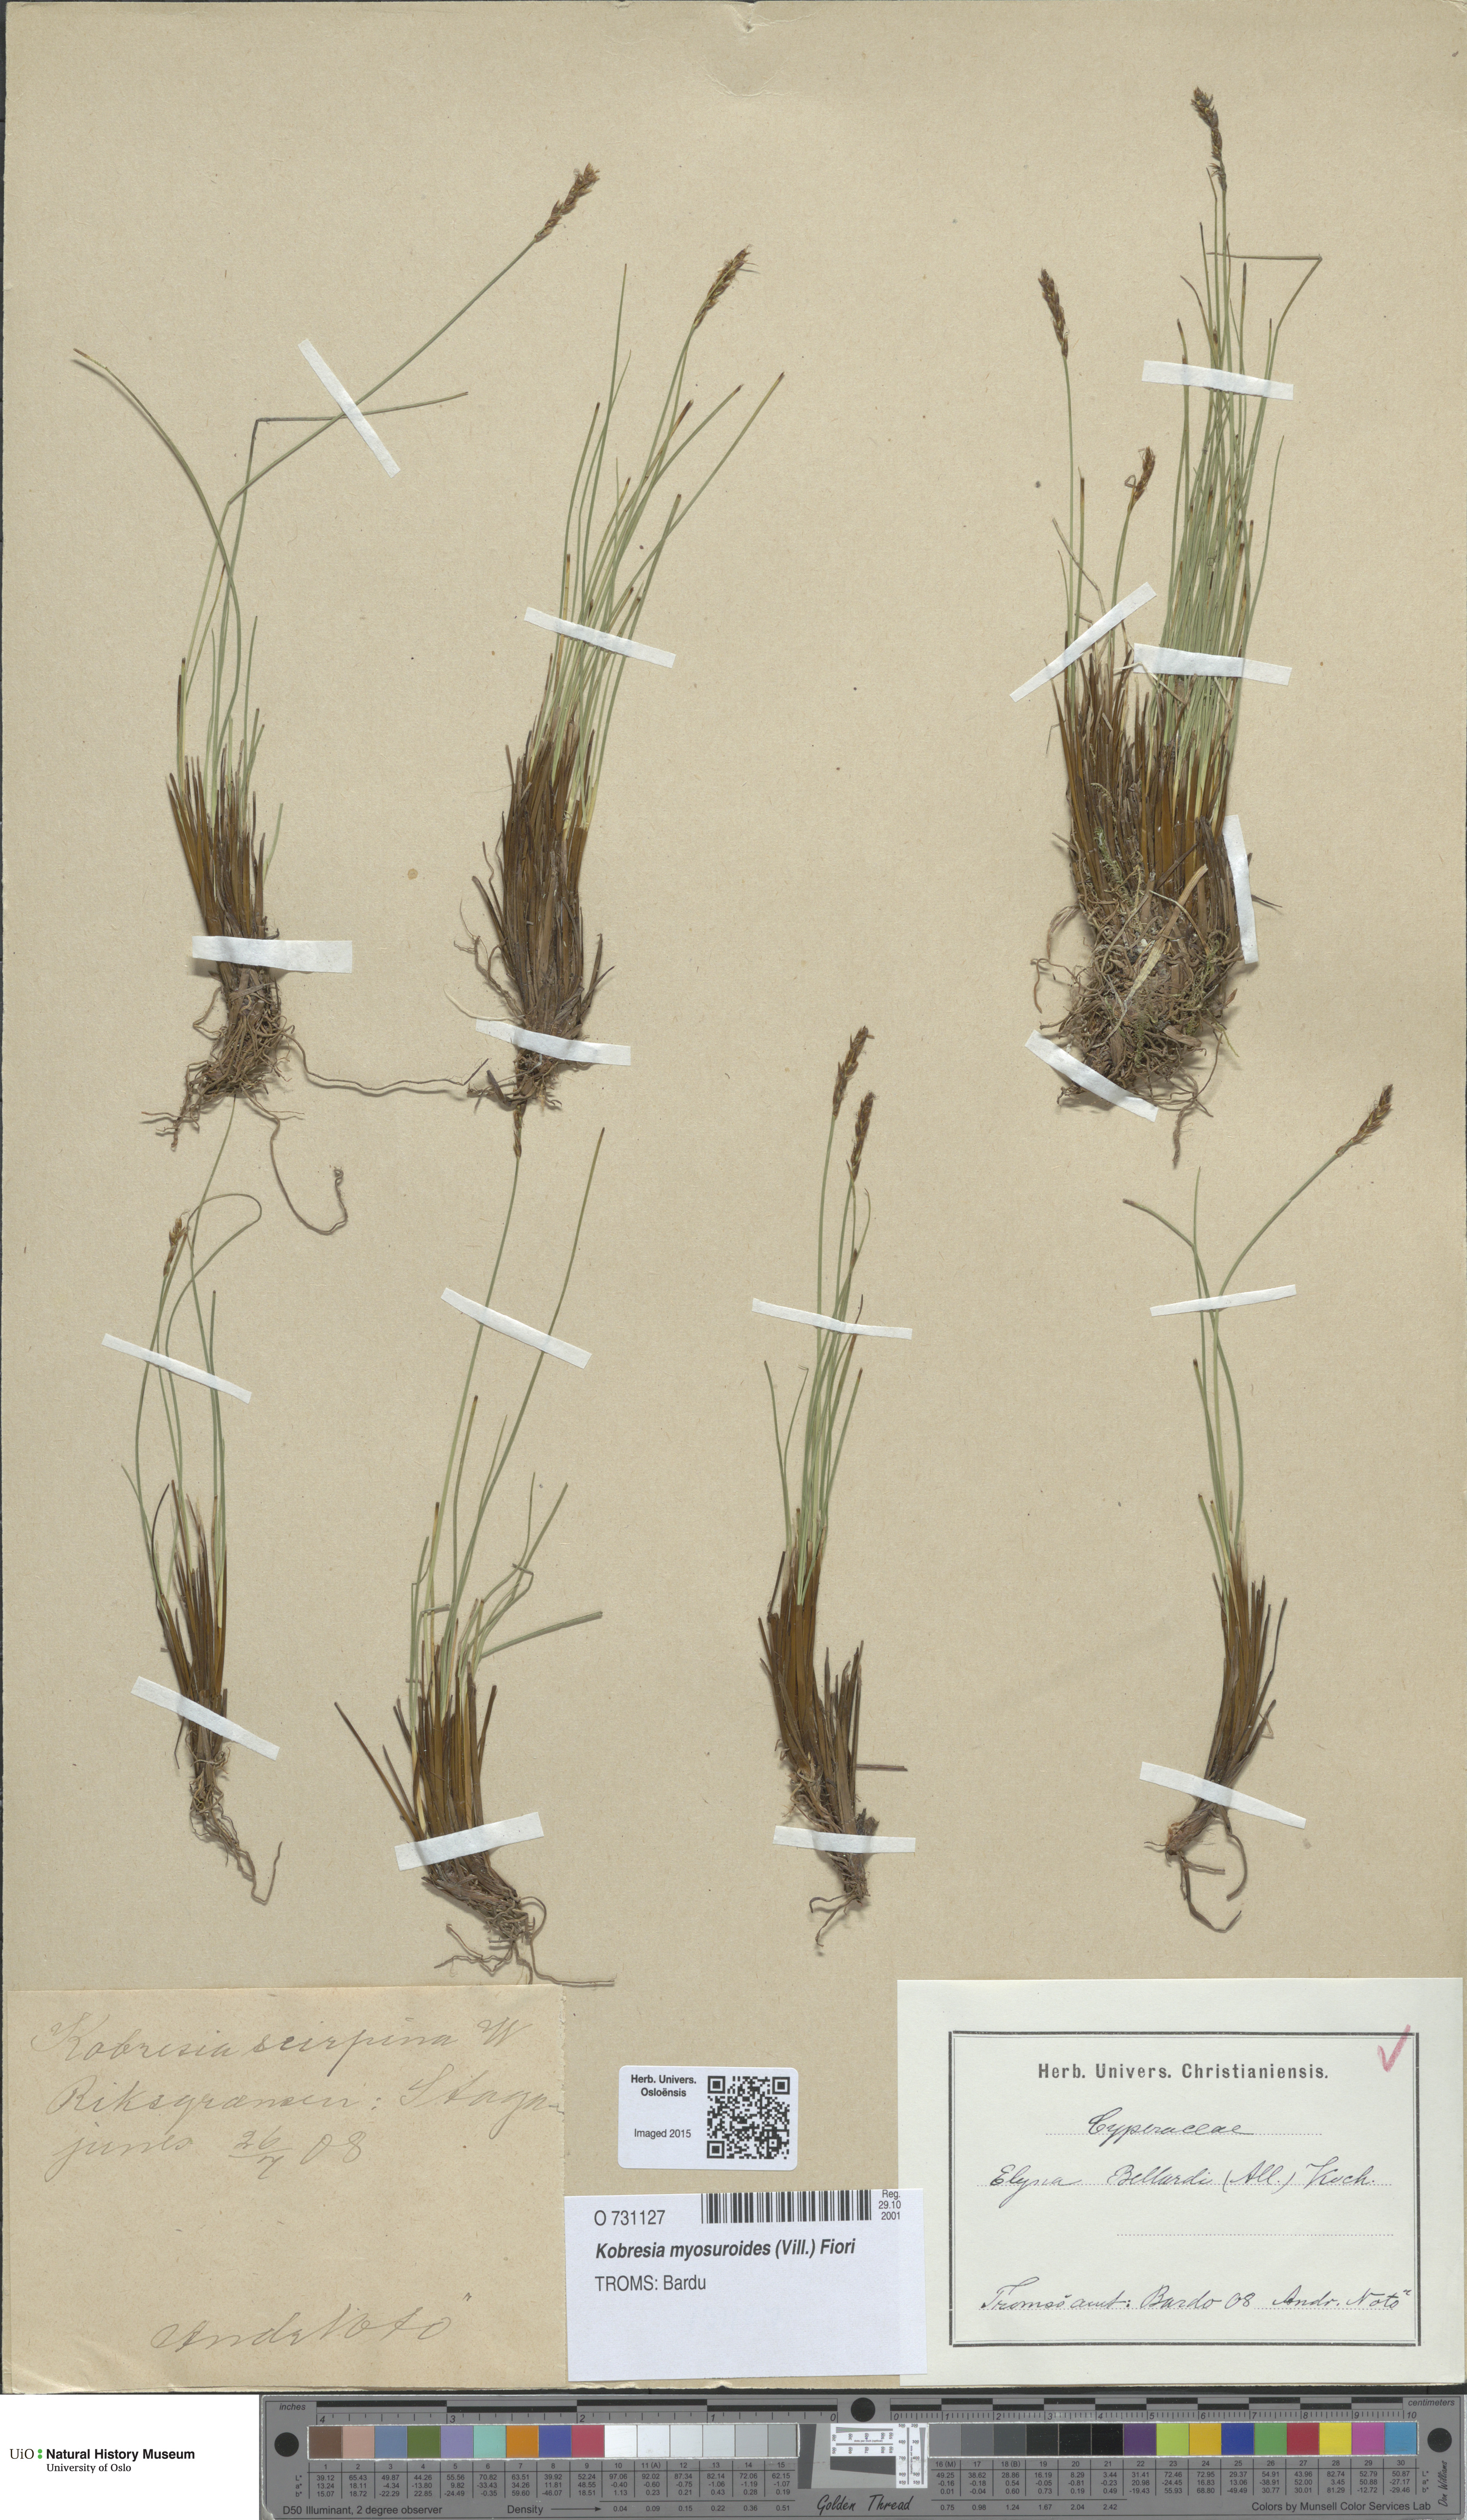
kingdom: Plantae
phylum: Tracheophyta
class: Liliopsida
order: Poales
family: Cyperaceae
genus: Carex
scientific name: Carex myosuroides
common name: Bellard's bog sedge
